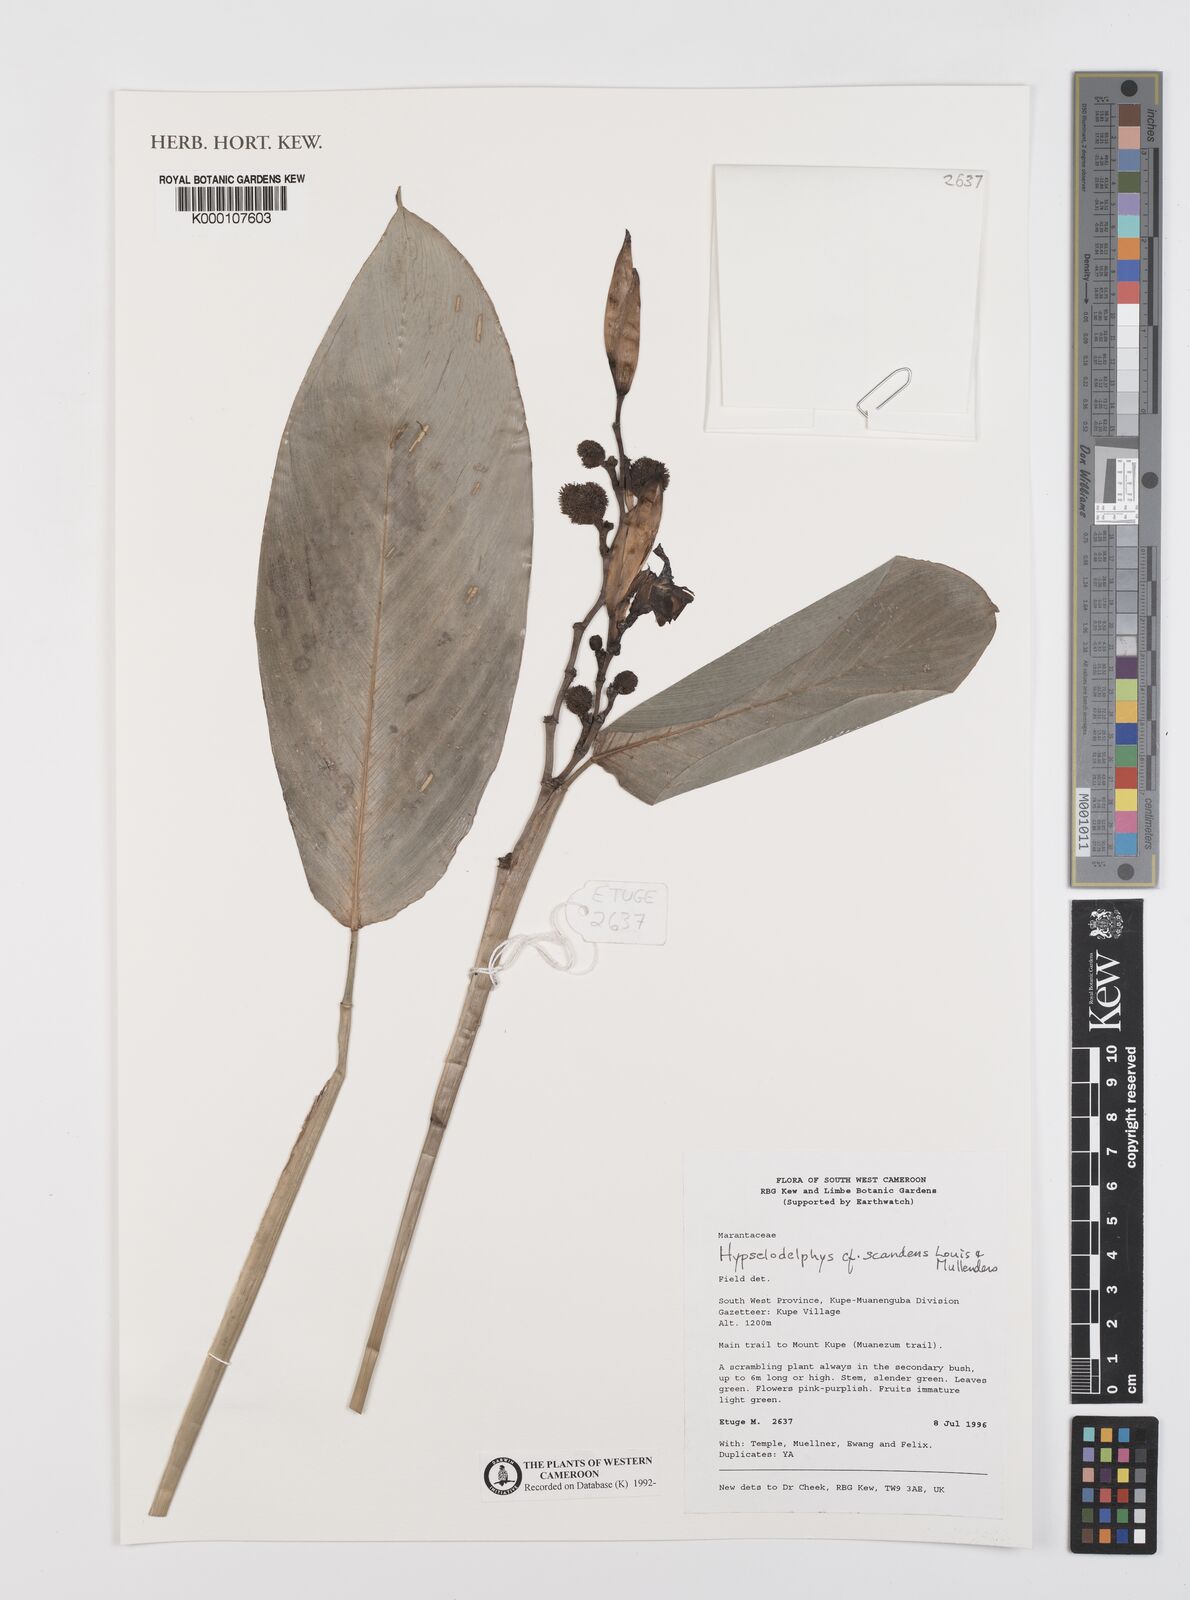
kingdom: Plantae
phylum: Tracheophyta
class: Liliopsida
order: Zingiberales
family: Marantaceae
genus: Hypselodelphys
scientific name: Hypselodelphys scandens
